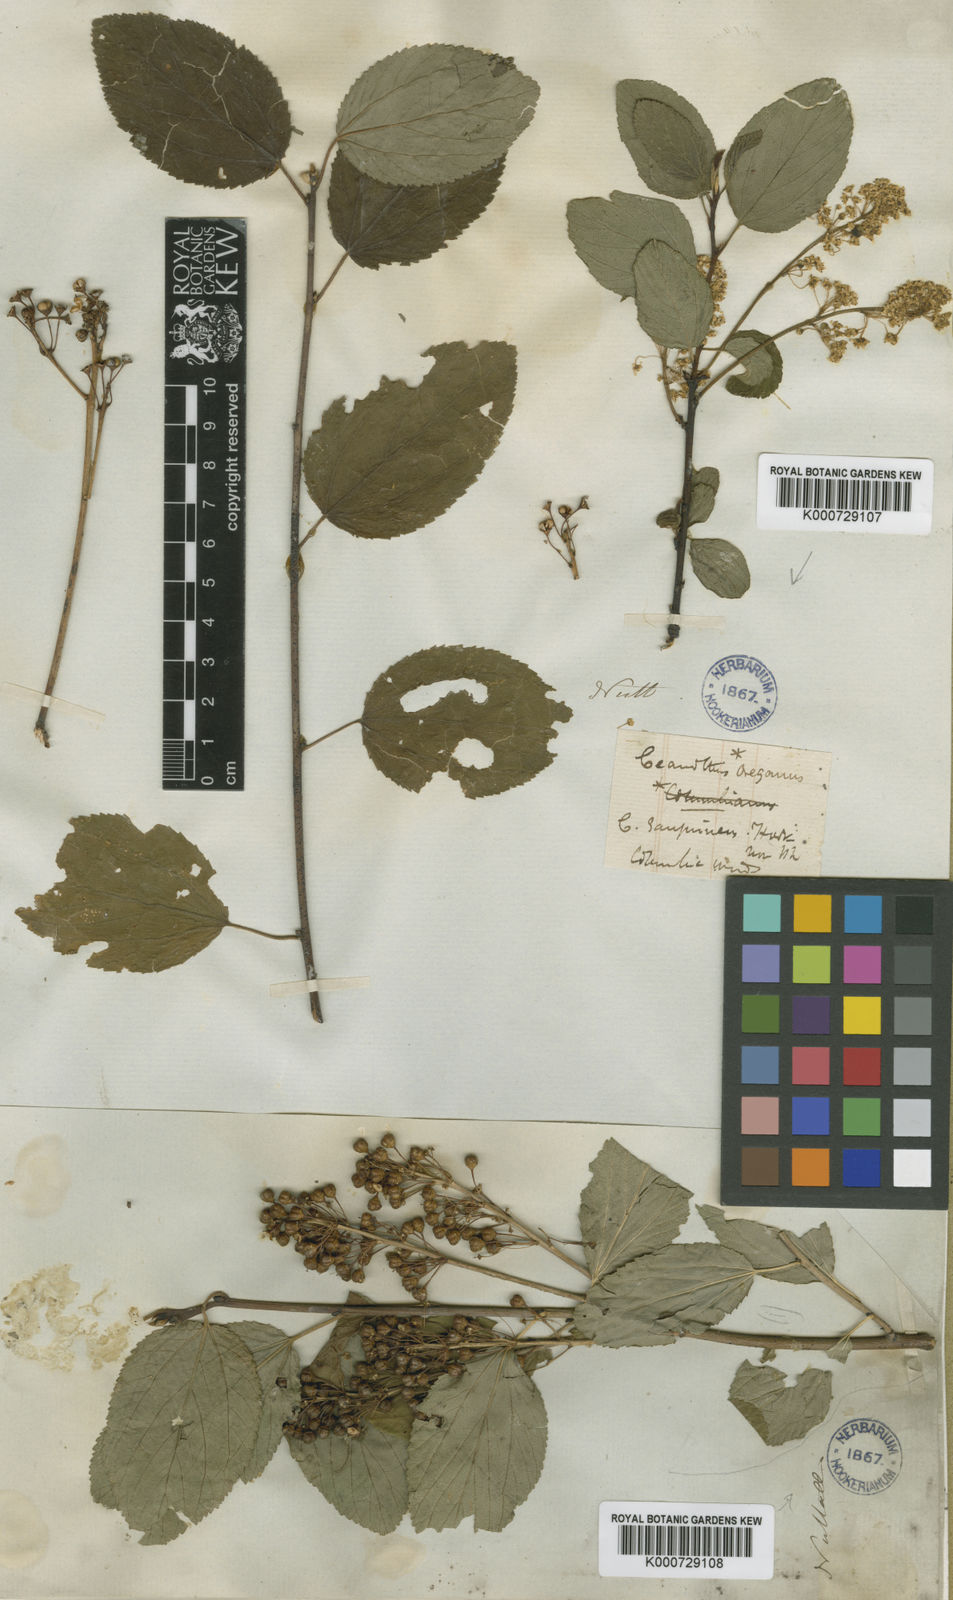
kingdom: Plantae
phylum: Tracheophyta
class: Magnoliopsida
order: Rosales
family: Rhamnaceae
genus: Ceanothus
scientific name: Ceanothus americanus
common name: Redroot
